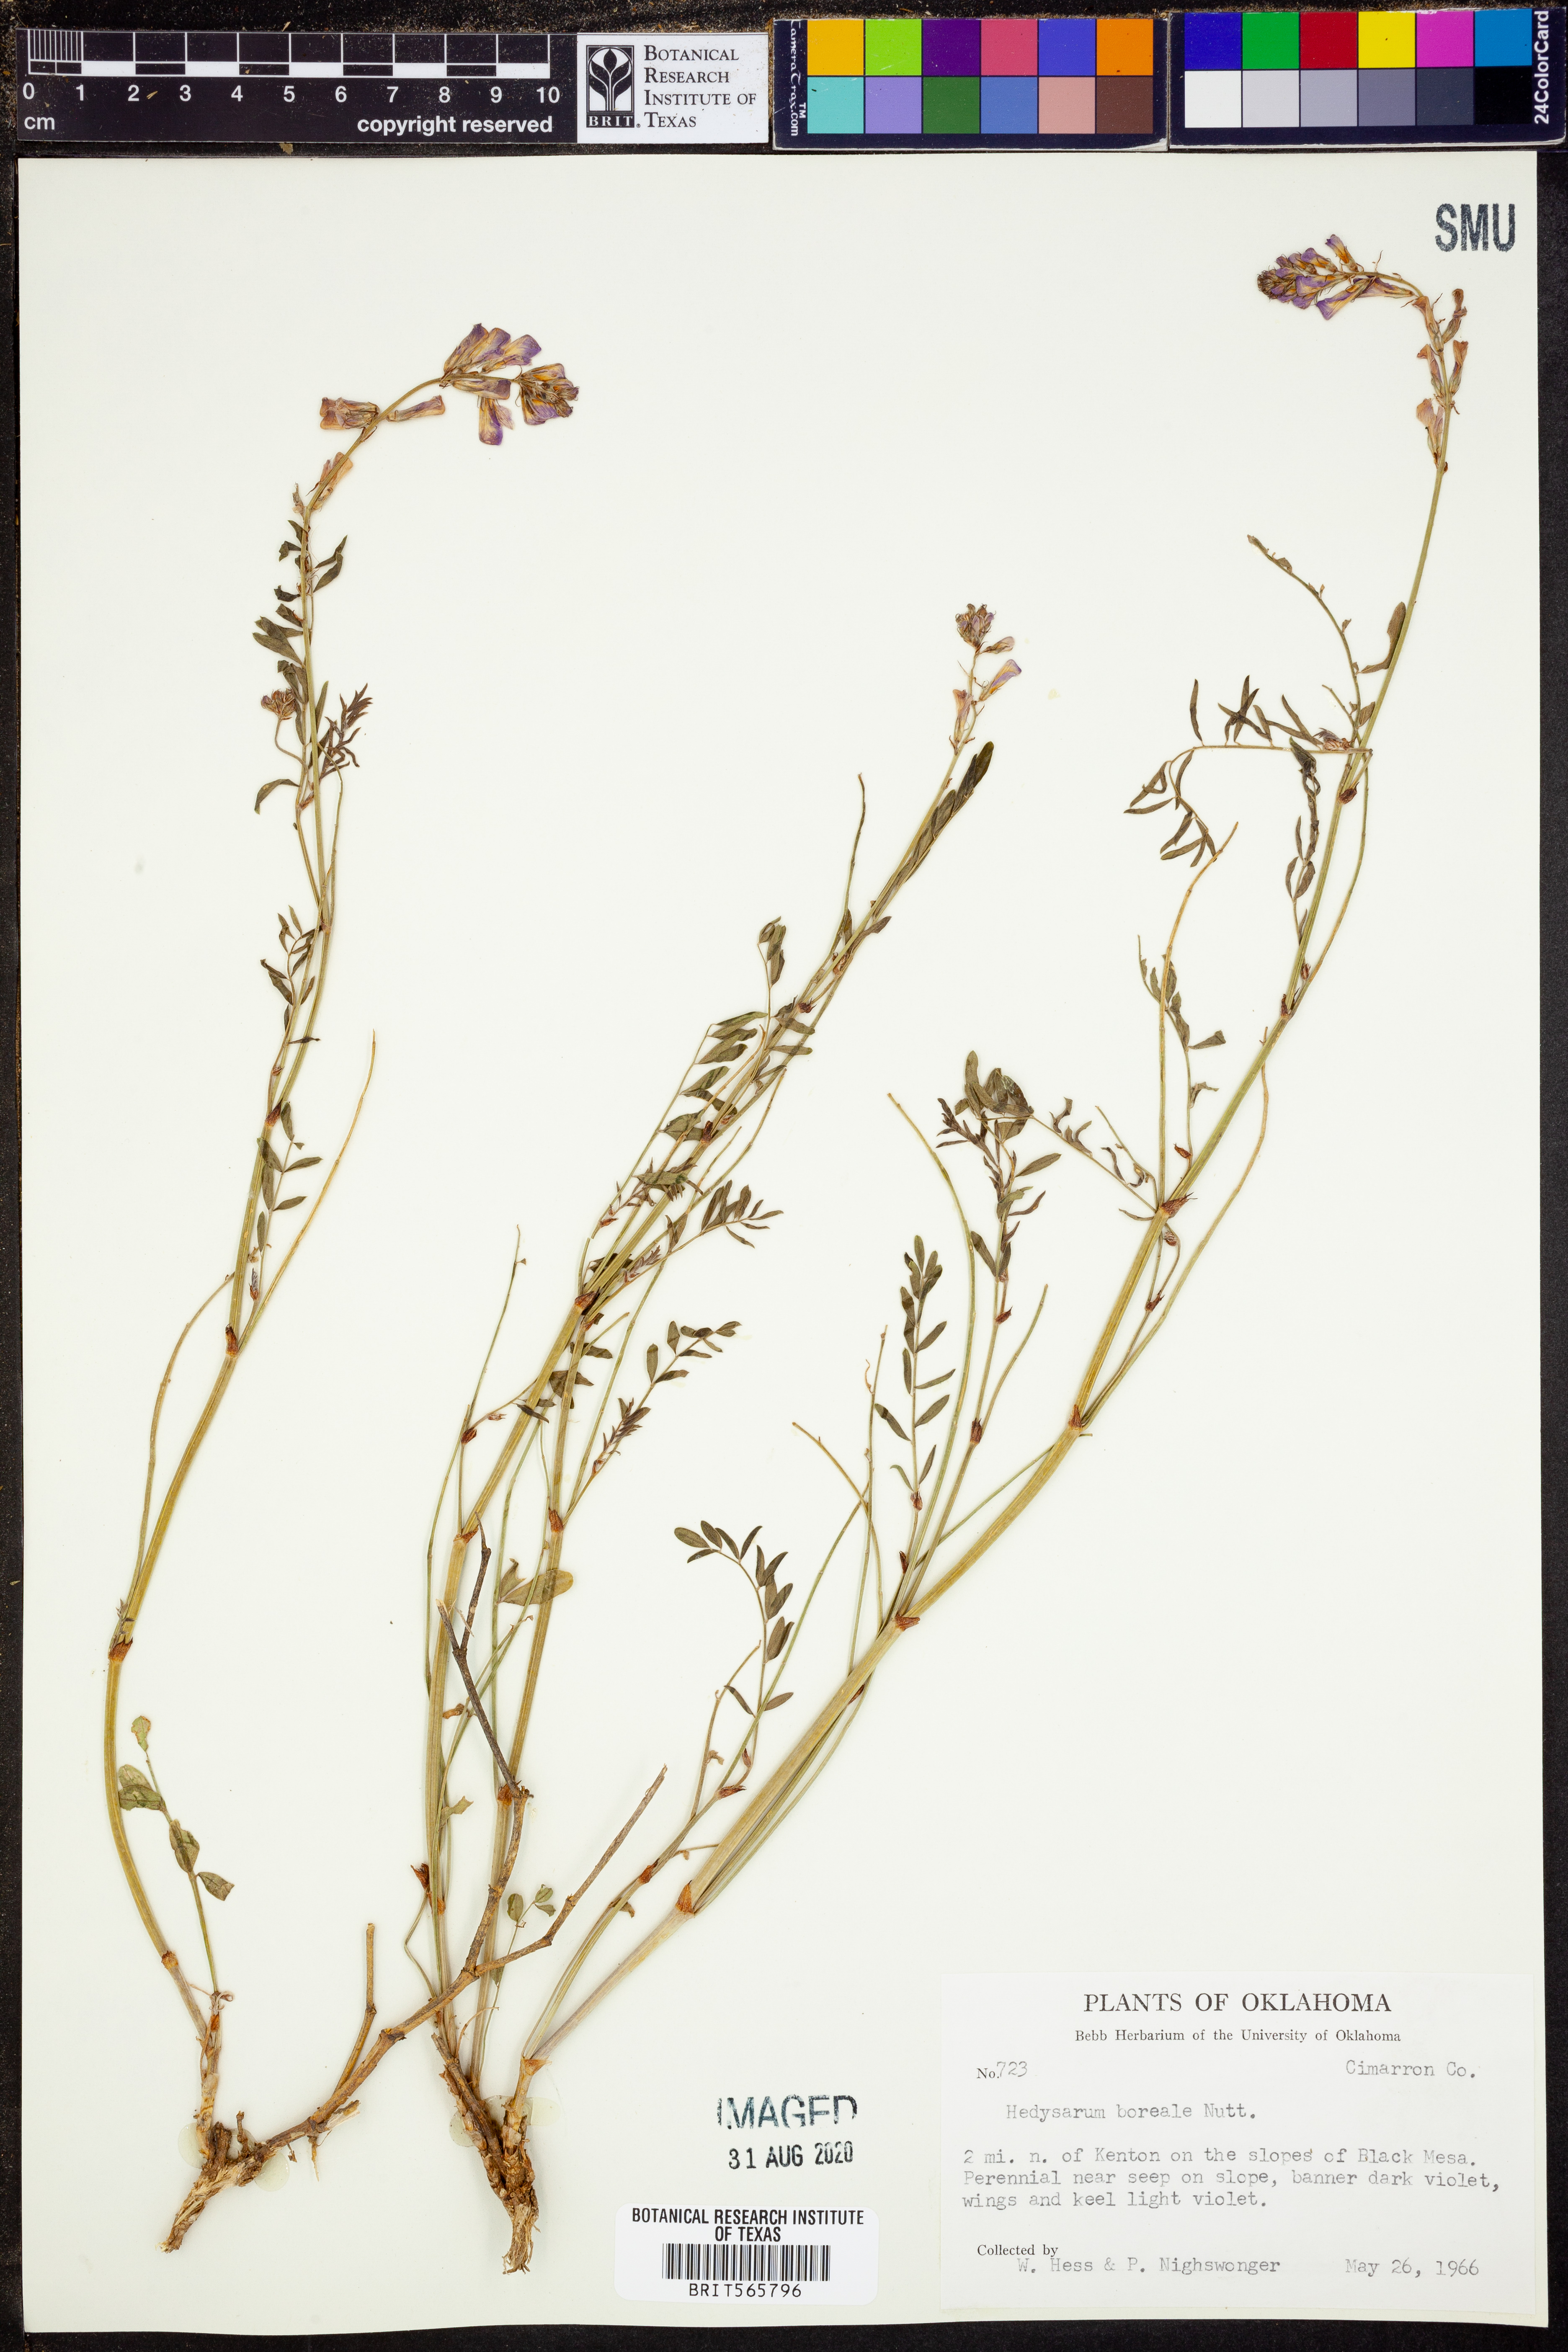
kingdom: Plantae
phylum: Tracheophyta
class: Magnoliopsida
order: Fabales
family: Fabaceae
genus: Hedysarum
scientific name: Hedysarum boreale
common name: Northern sweet-vetch
